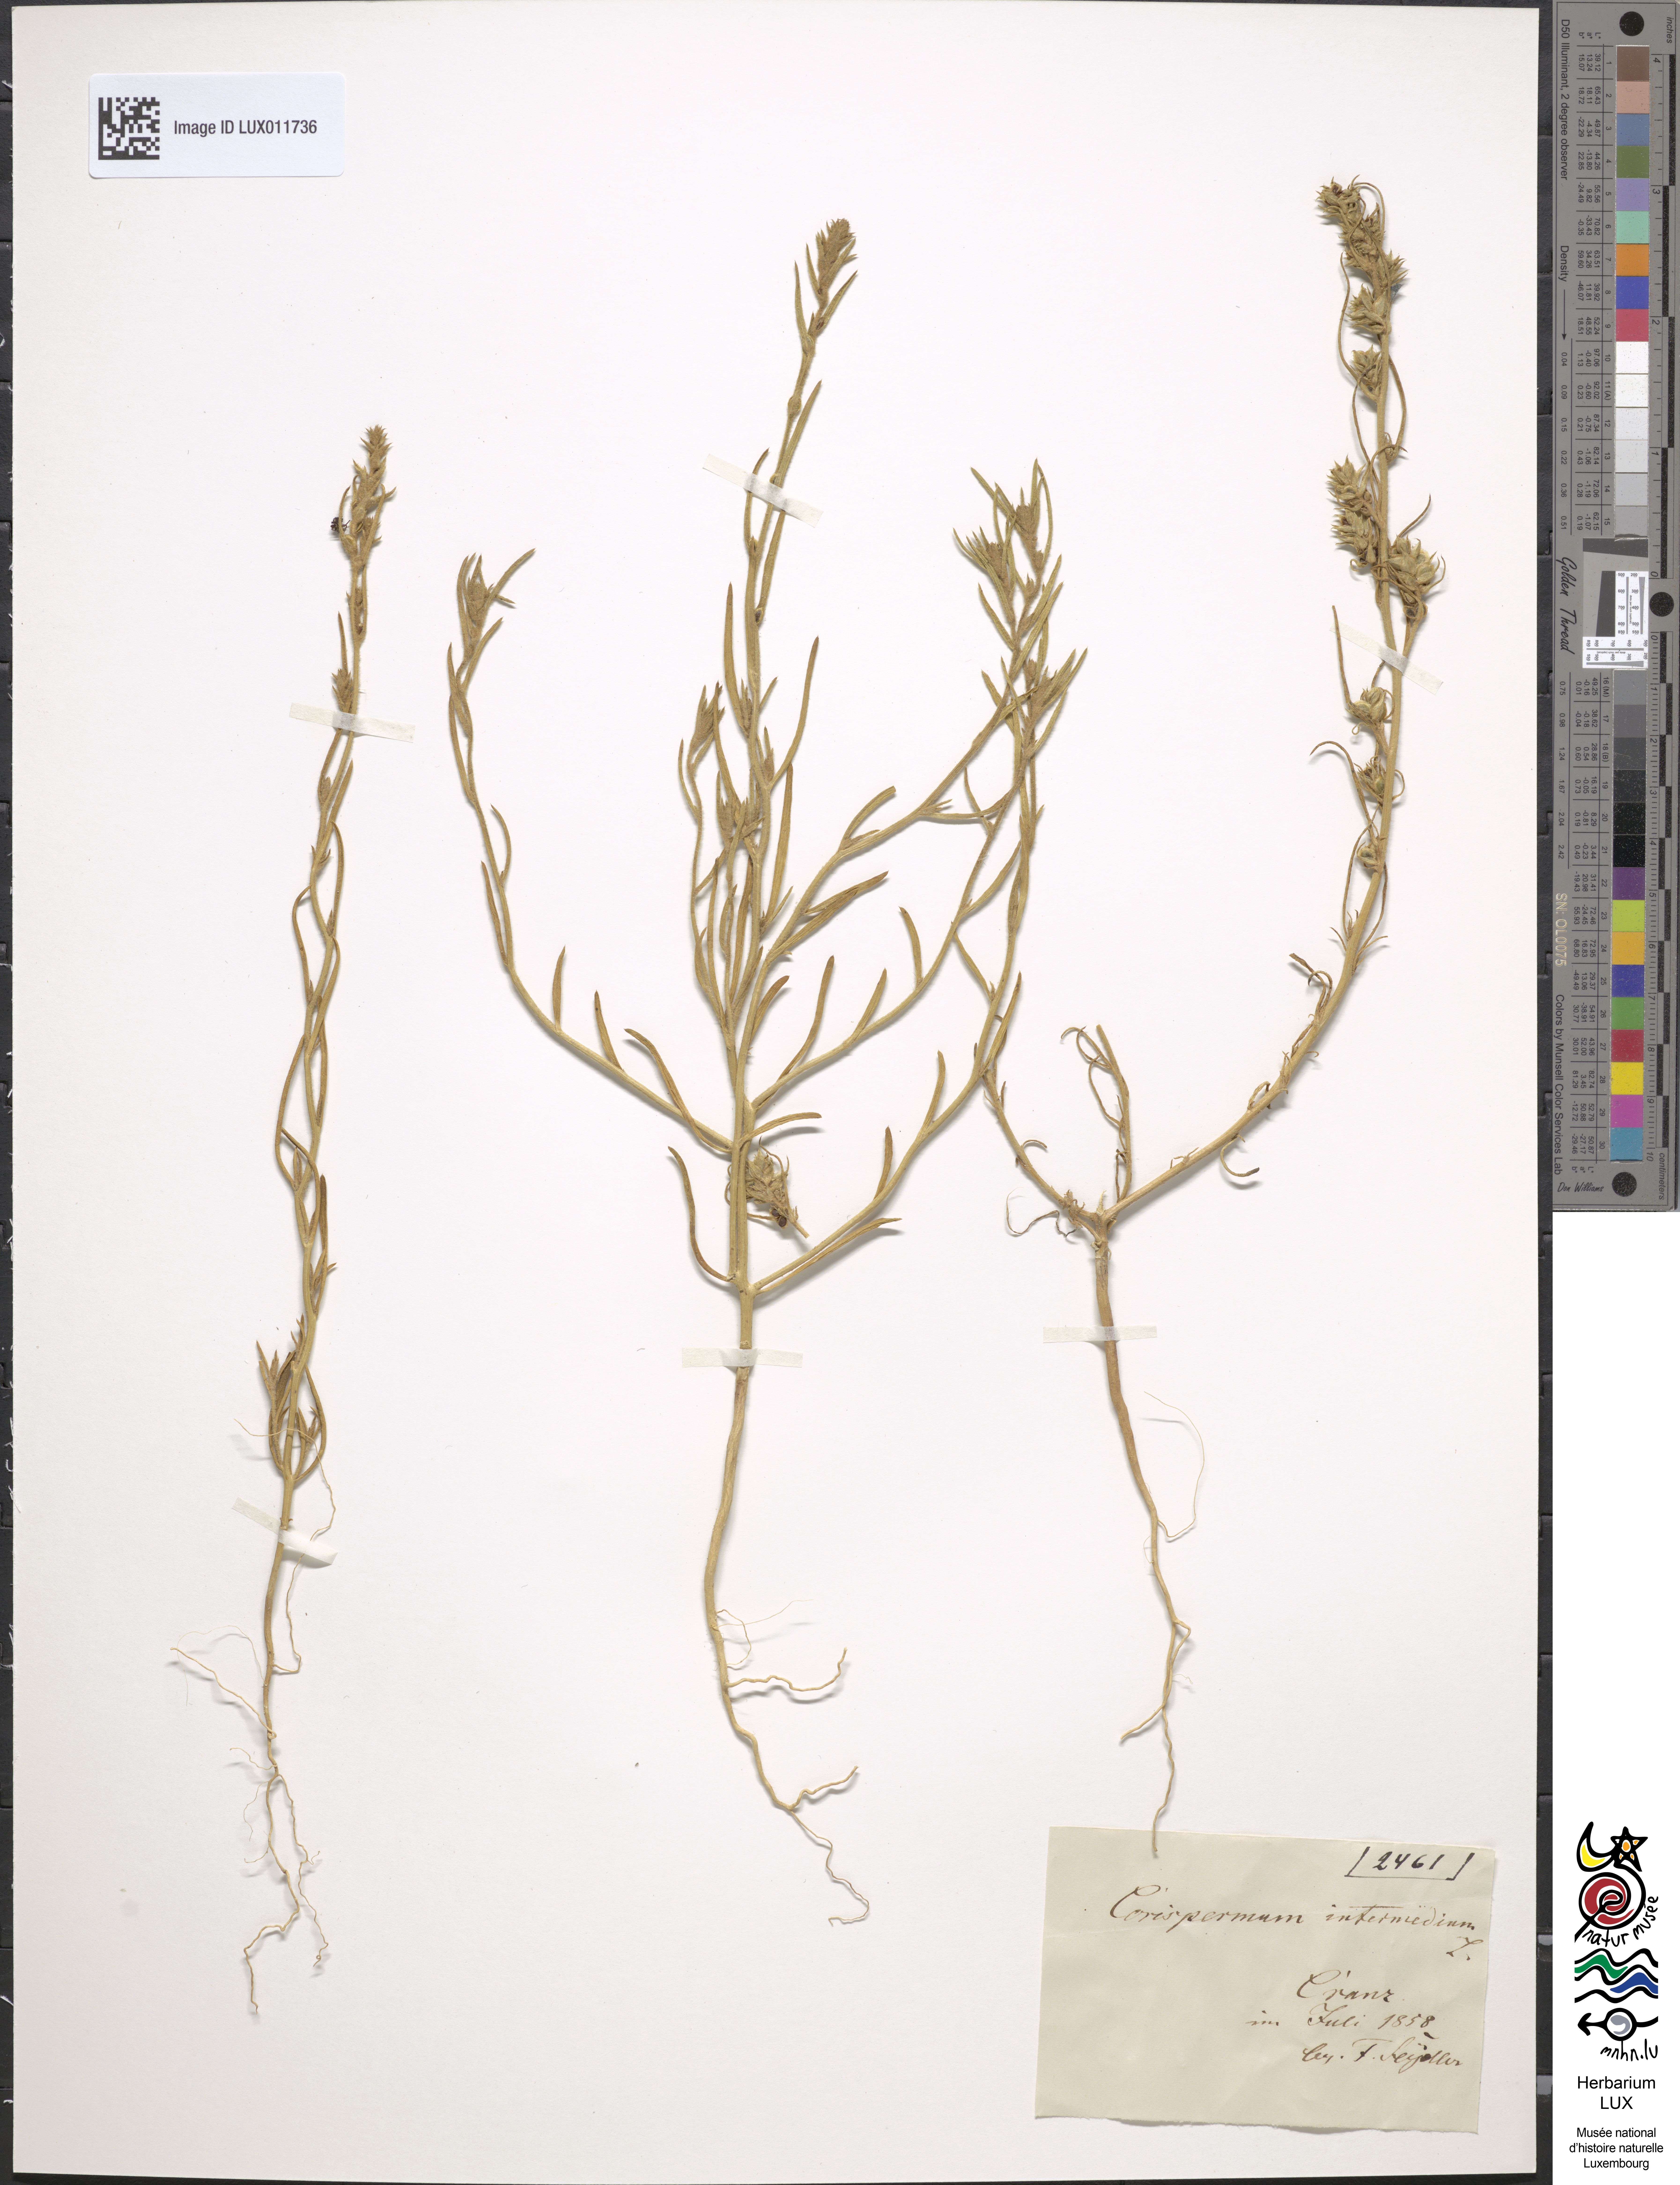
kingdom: Plantae
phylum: Tracheophyta
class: Magnoliopsida
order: Caryophyllales
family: Amaranthaceae
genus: Corispermum
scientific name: Corispermum hyssopifolium
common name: Bugseed
